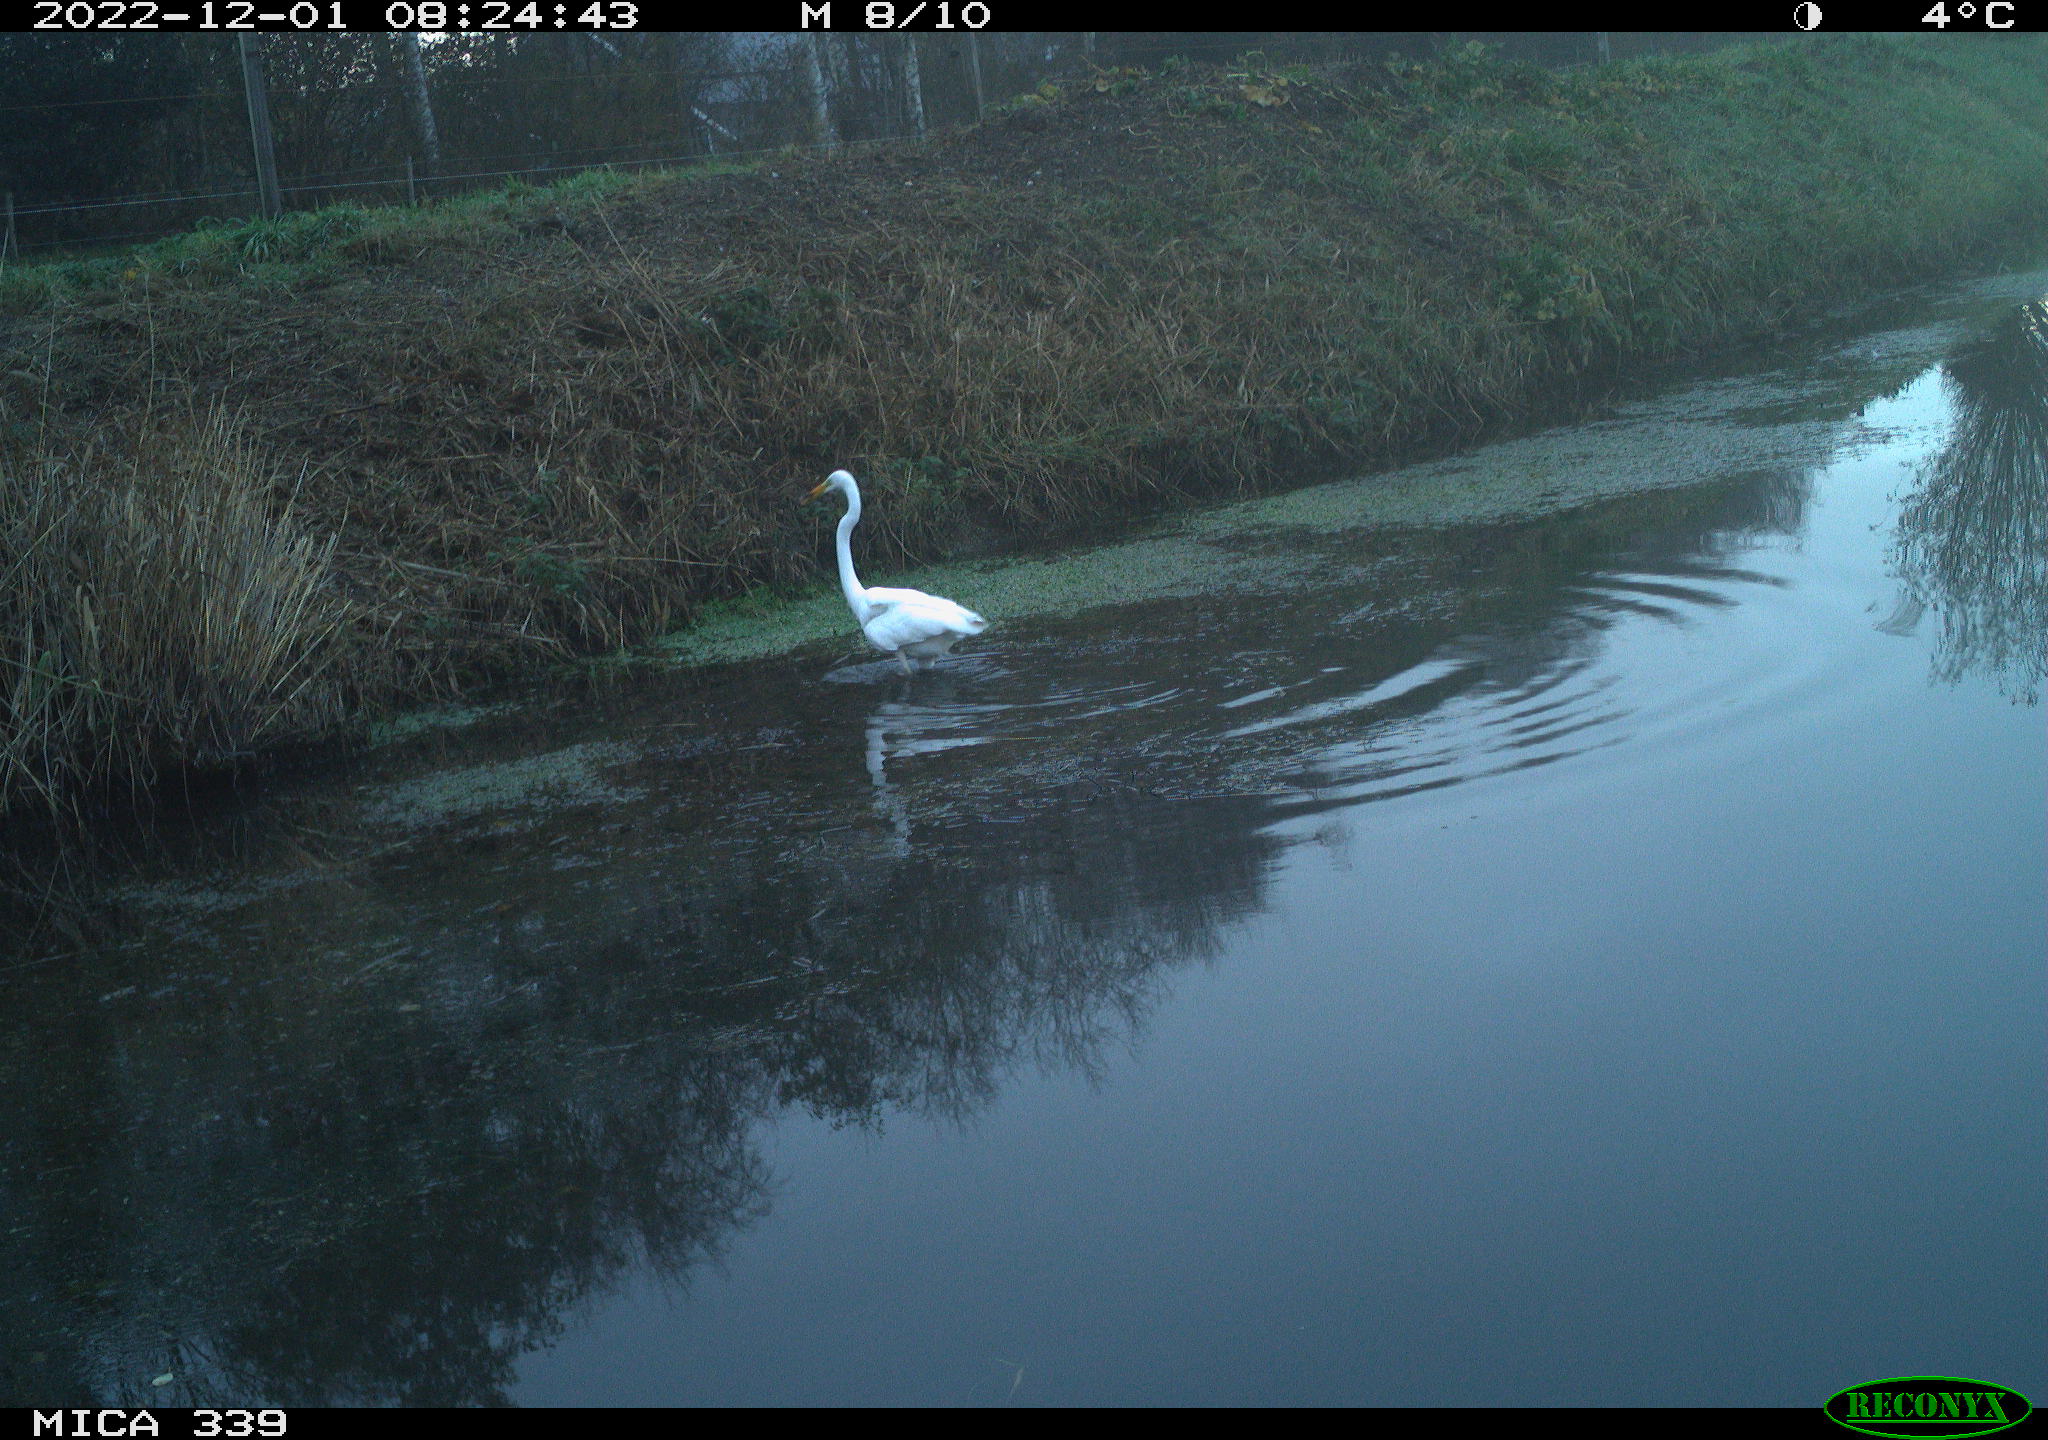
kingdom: Animalia
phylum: Chordata
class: Aves
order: Pelecaniformes
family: Ardeidae
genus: Ardea
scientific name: Ardea alba
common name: Great egret
